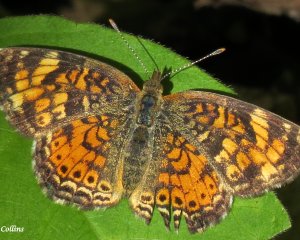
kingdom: Animalia
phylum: Arthropoda
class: Insecta
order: Lepidoptera
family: Nymphalidae
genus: Phyciodes
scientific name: Phyciodes tharos
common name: Northern Crescent
